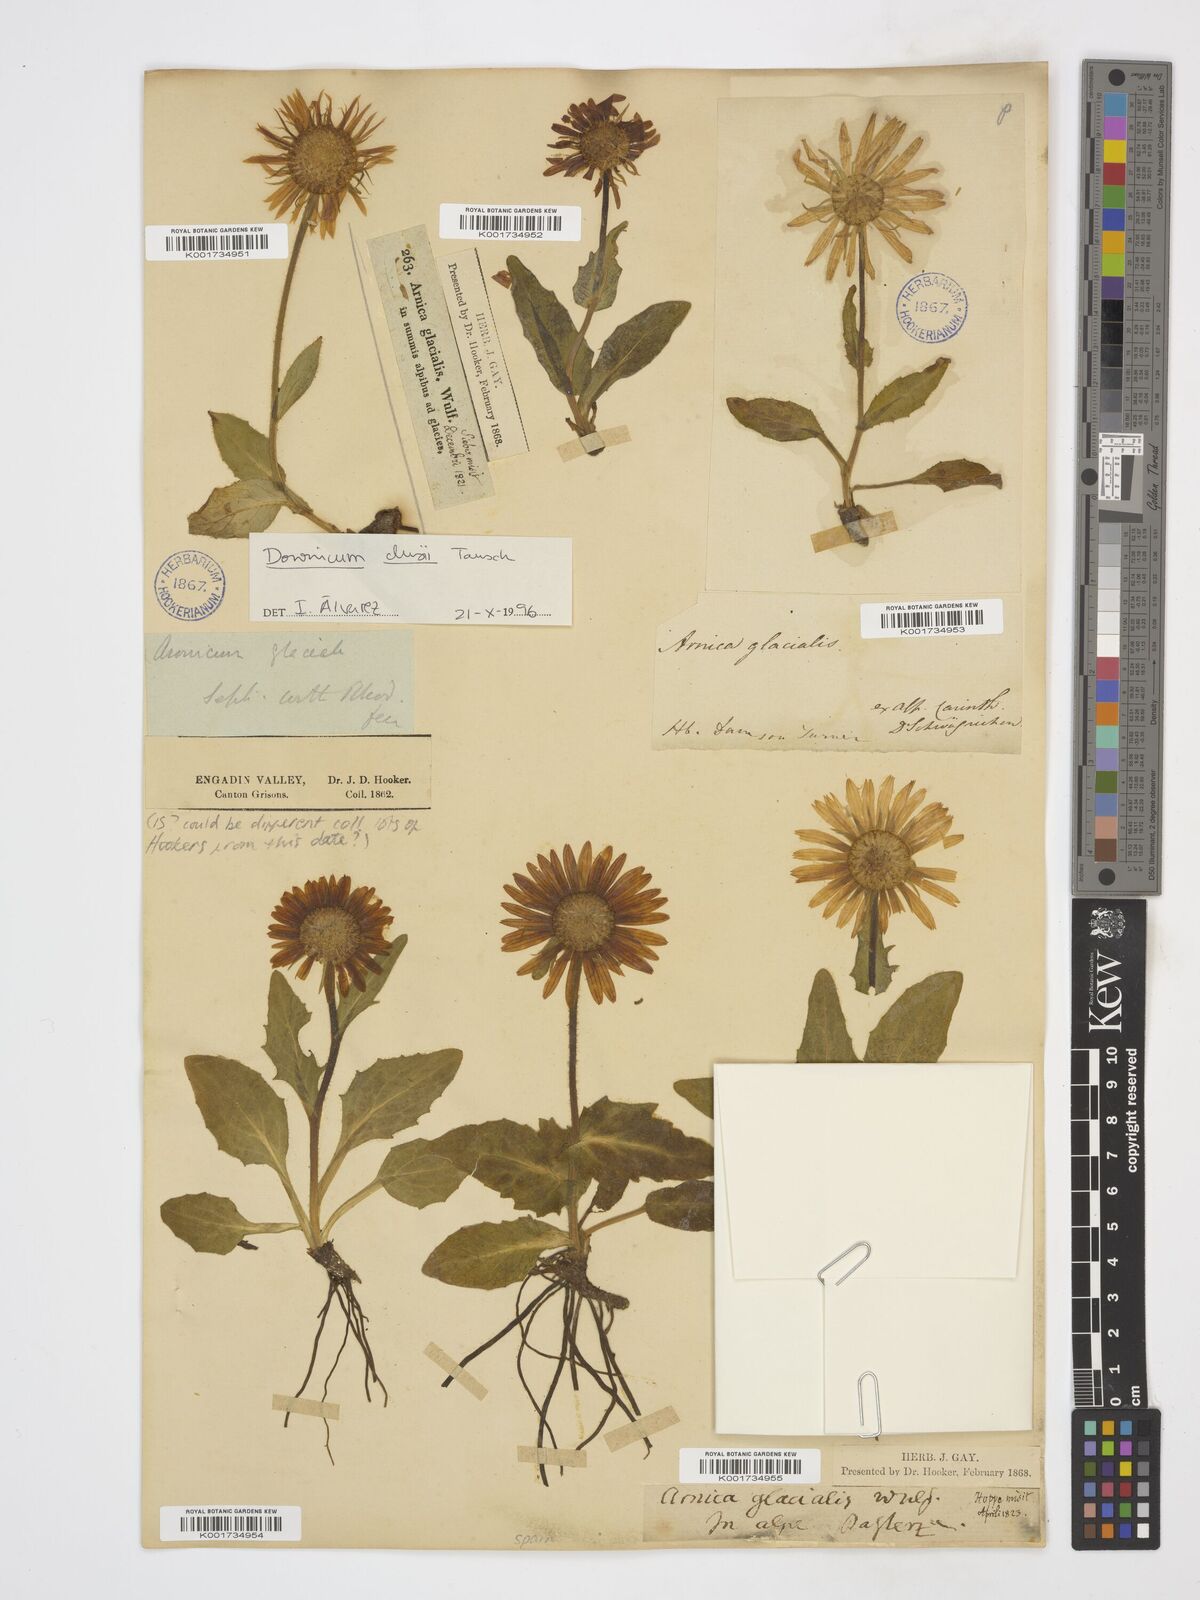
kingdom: Plantae
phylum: Tracheophyta
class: Magnoliopsida
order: Asterales
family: Asteraceae
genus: Doronicum
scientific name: Doronicum glaciale
